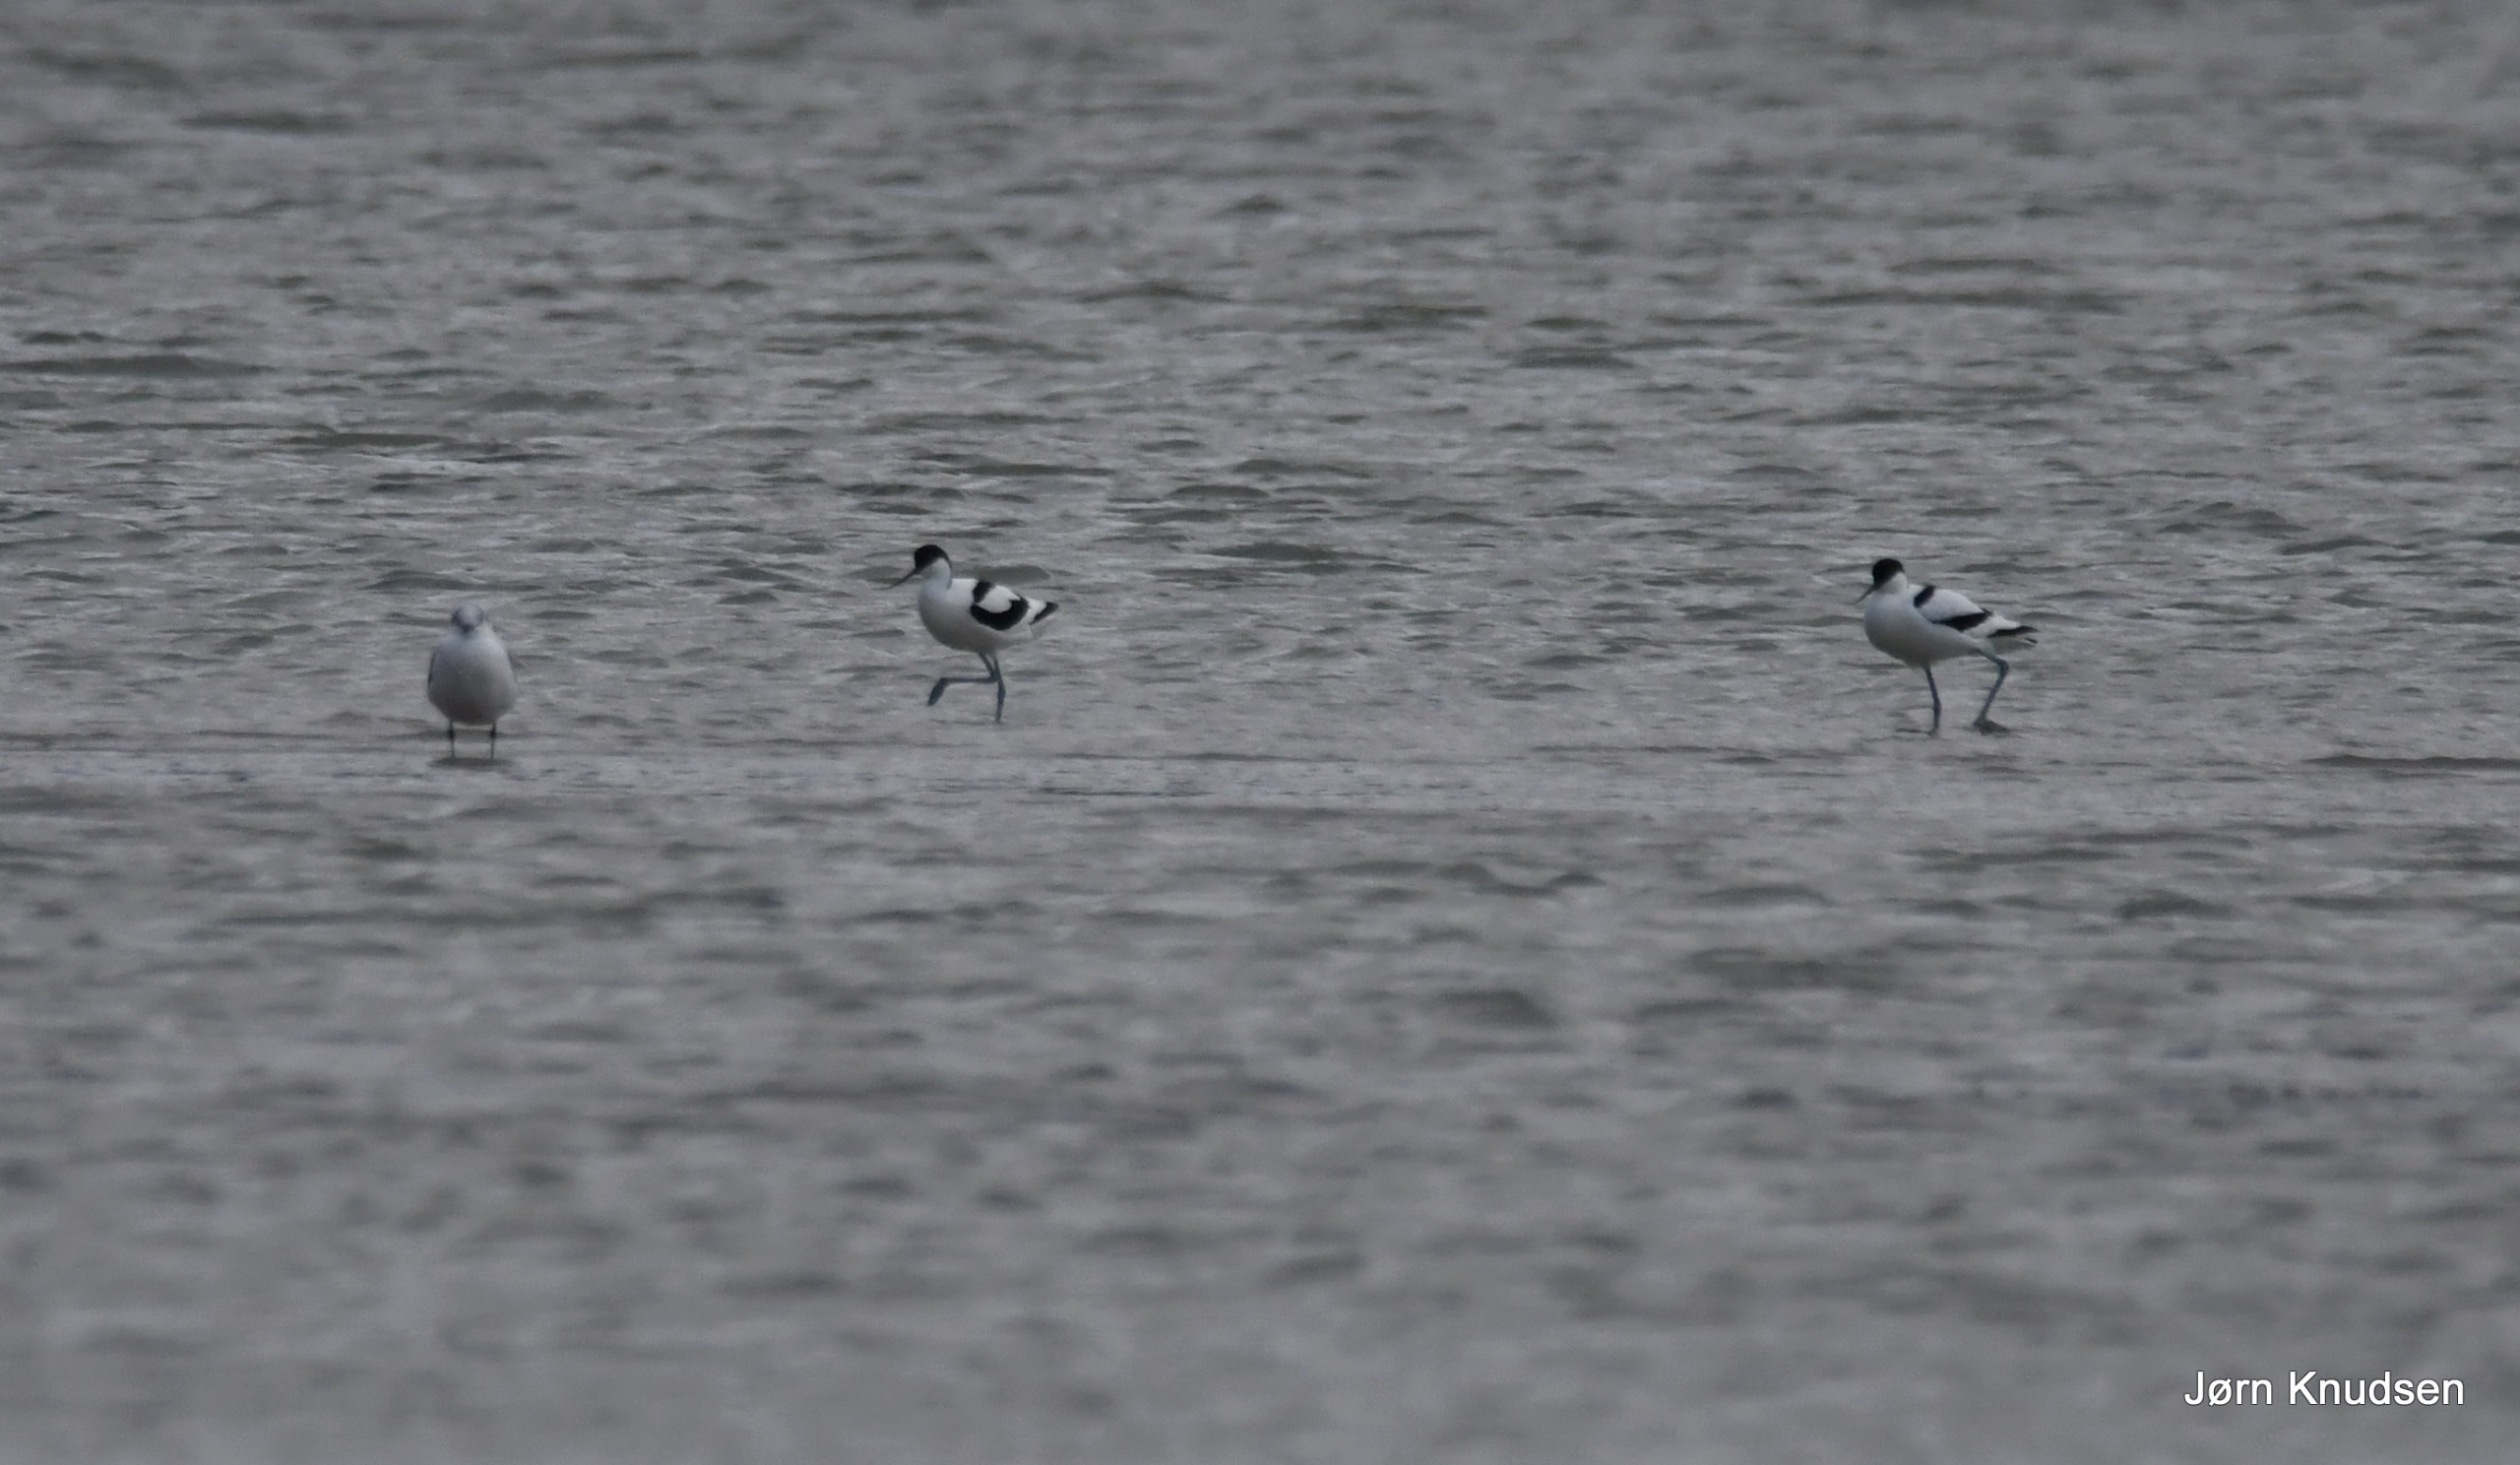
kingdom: Animalia
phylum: Chordata
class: Aves
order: Charadriiformes
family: Recurvirostridae
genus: Recurvirostra
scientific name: Recurvirostra avosetta
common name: Klyde
